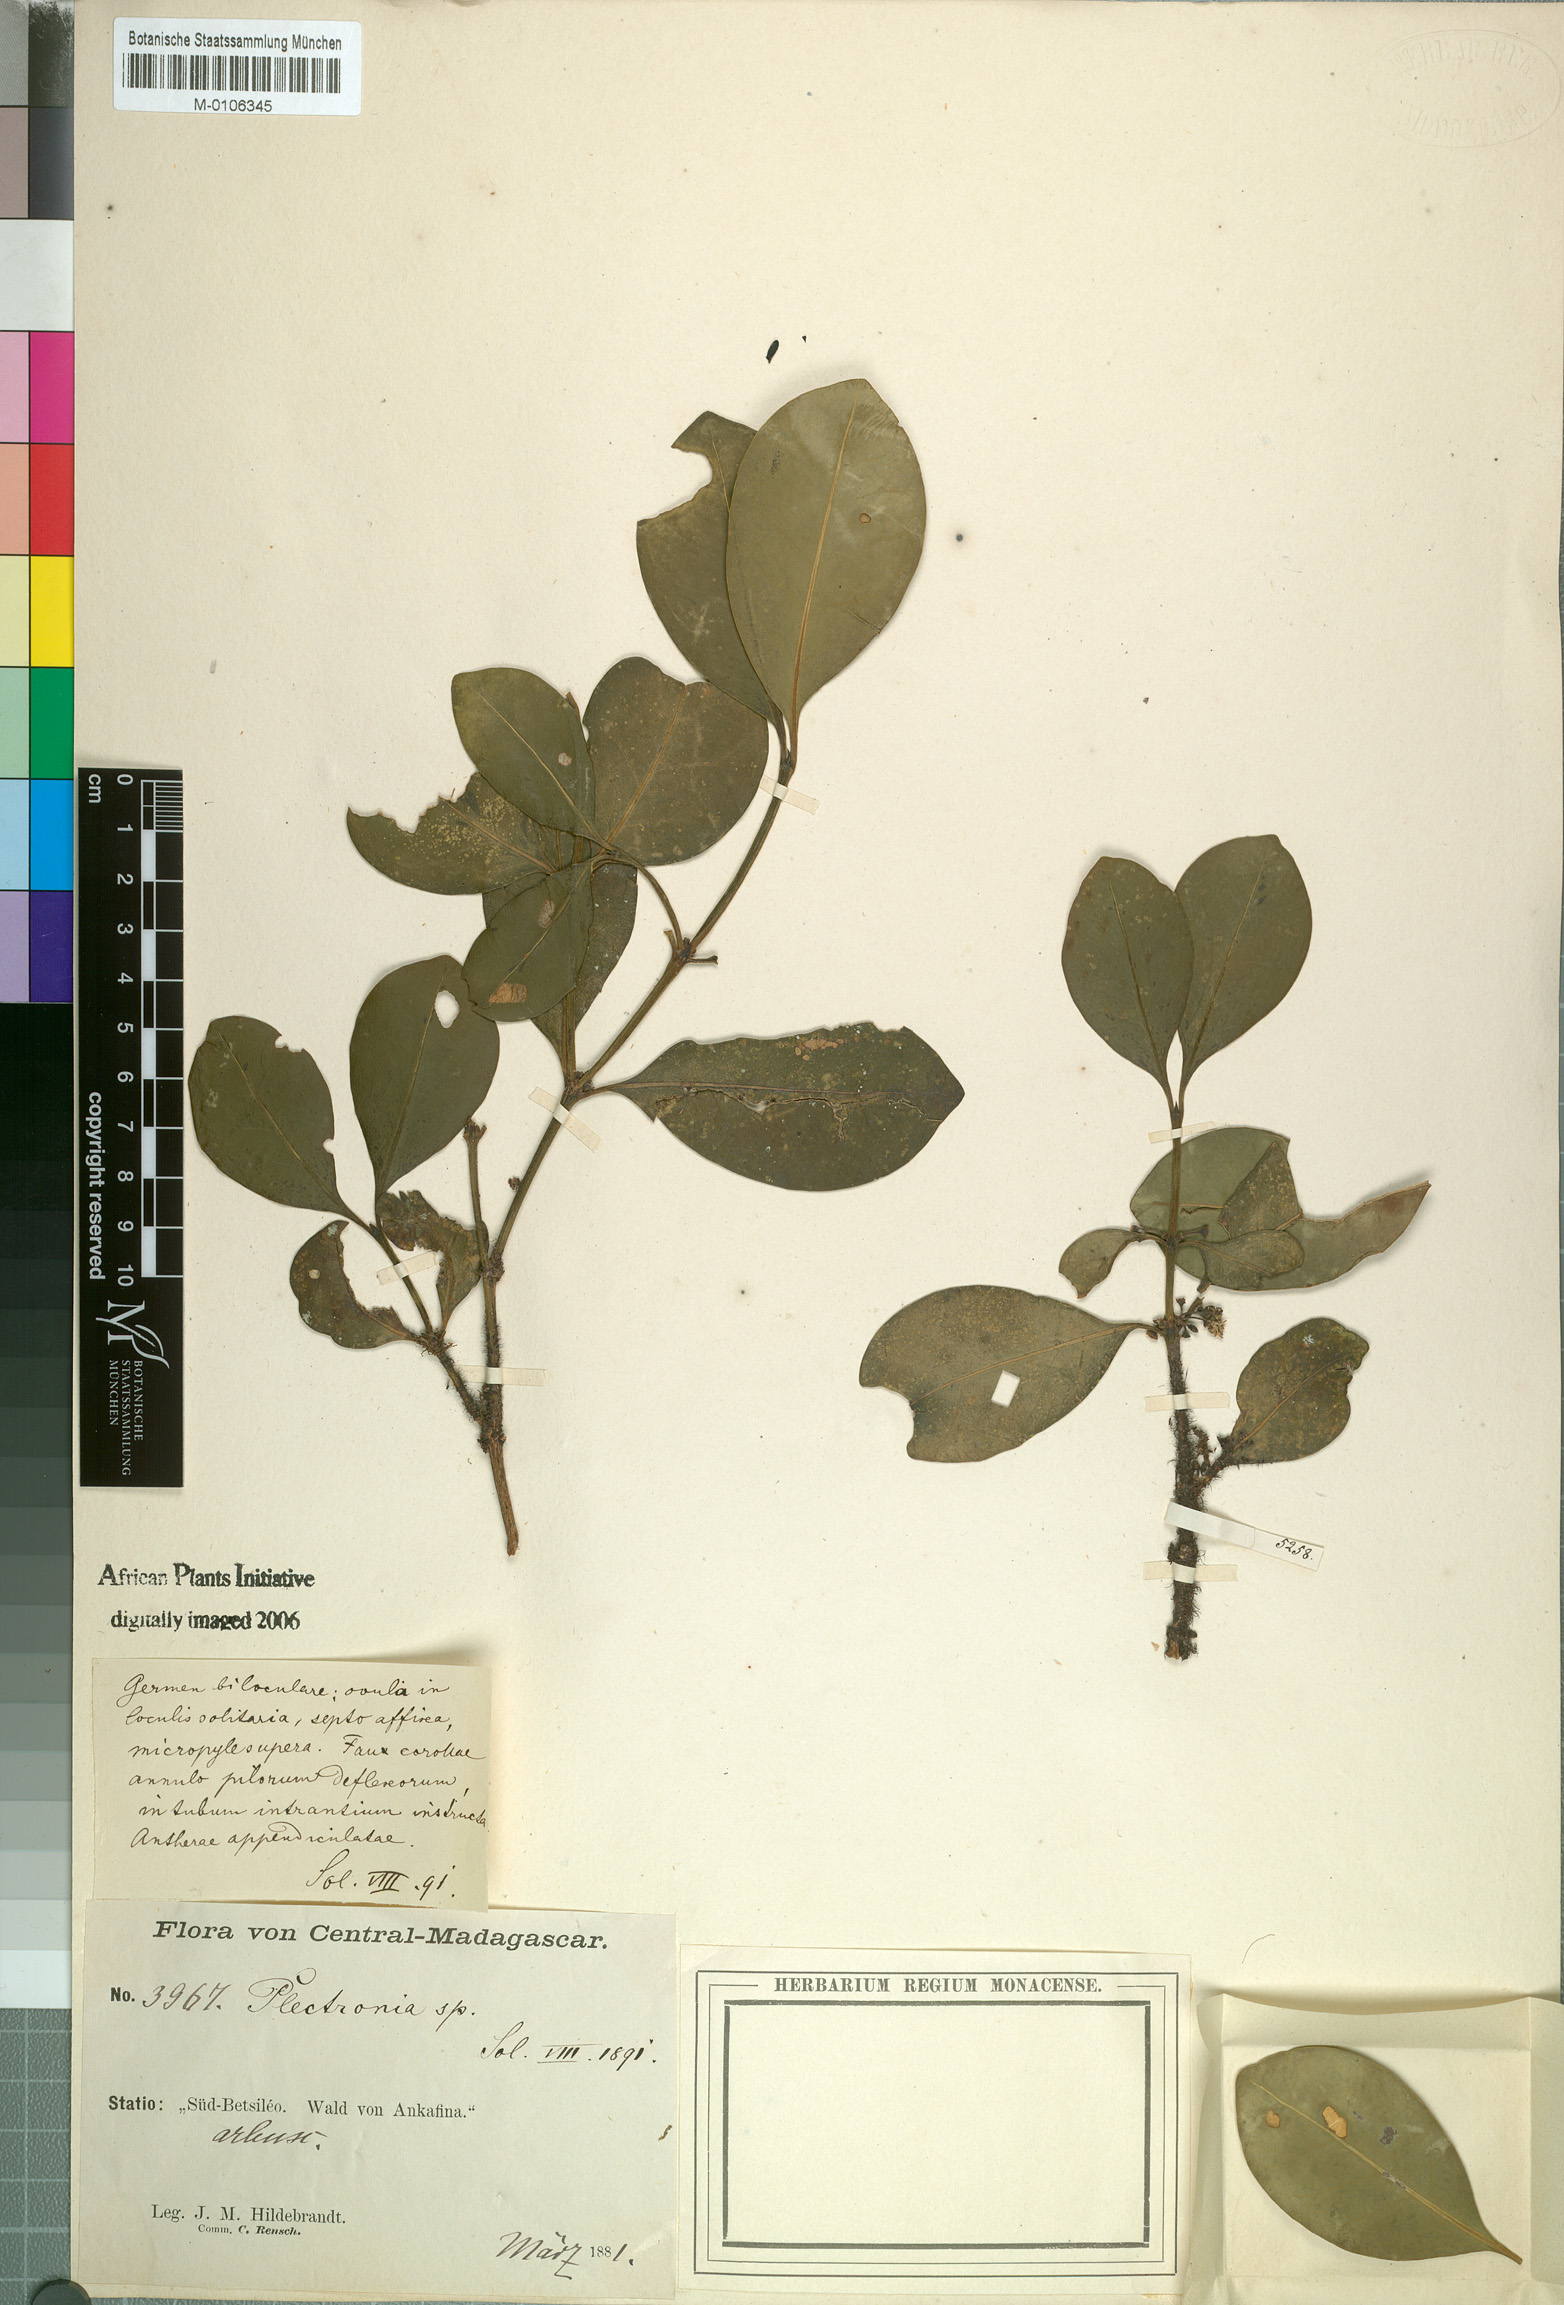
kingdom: Plantae
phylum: Tracheophyta
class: Magnoliopsida
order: Gentianales
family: Rubiaceae
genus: Peponidium
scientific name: Peponidium subevenium
